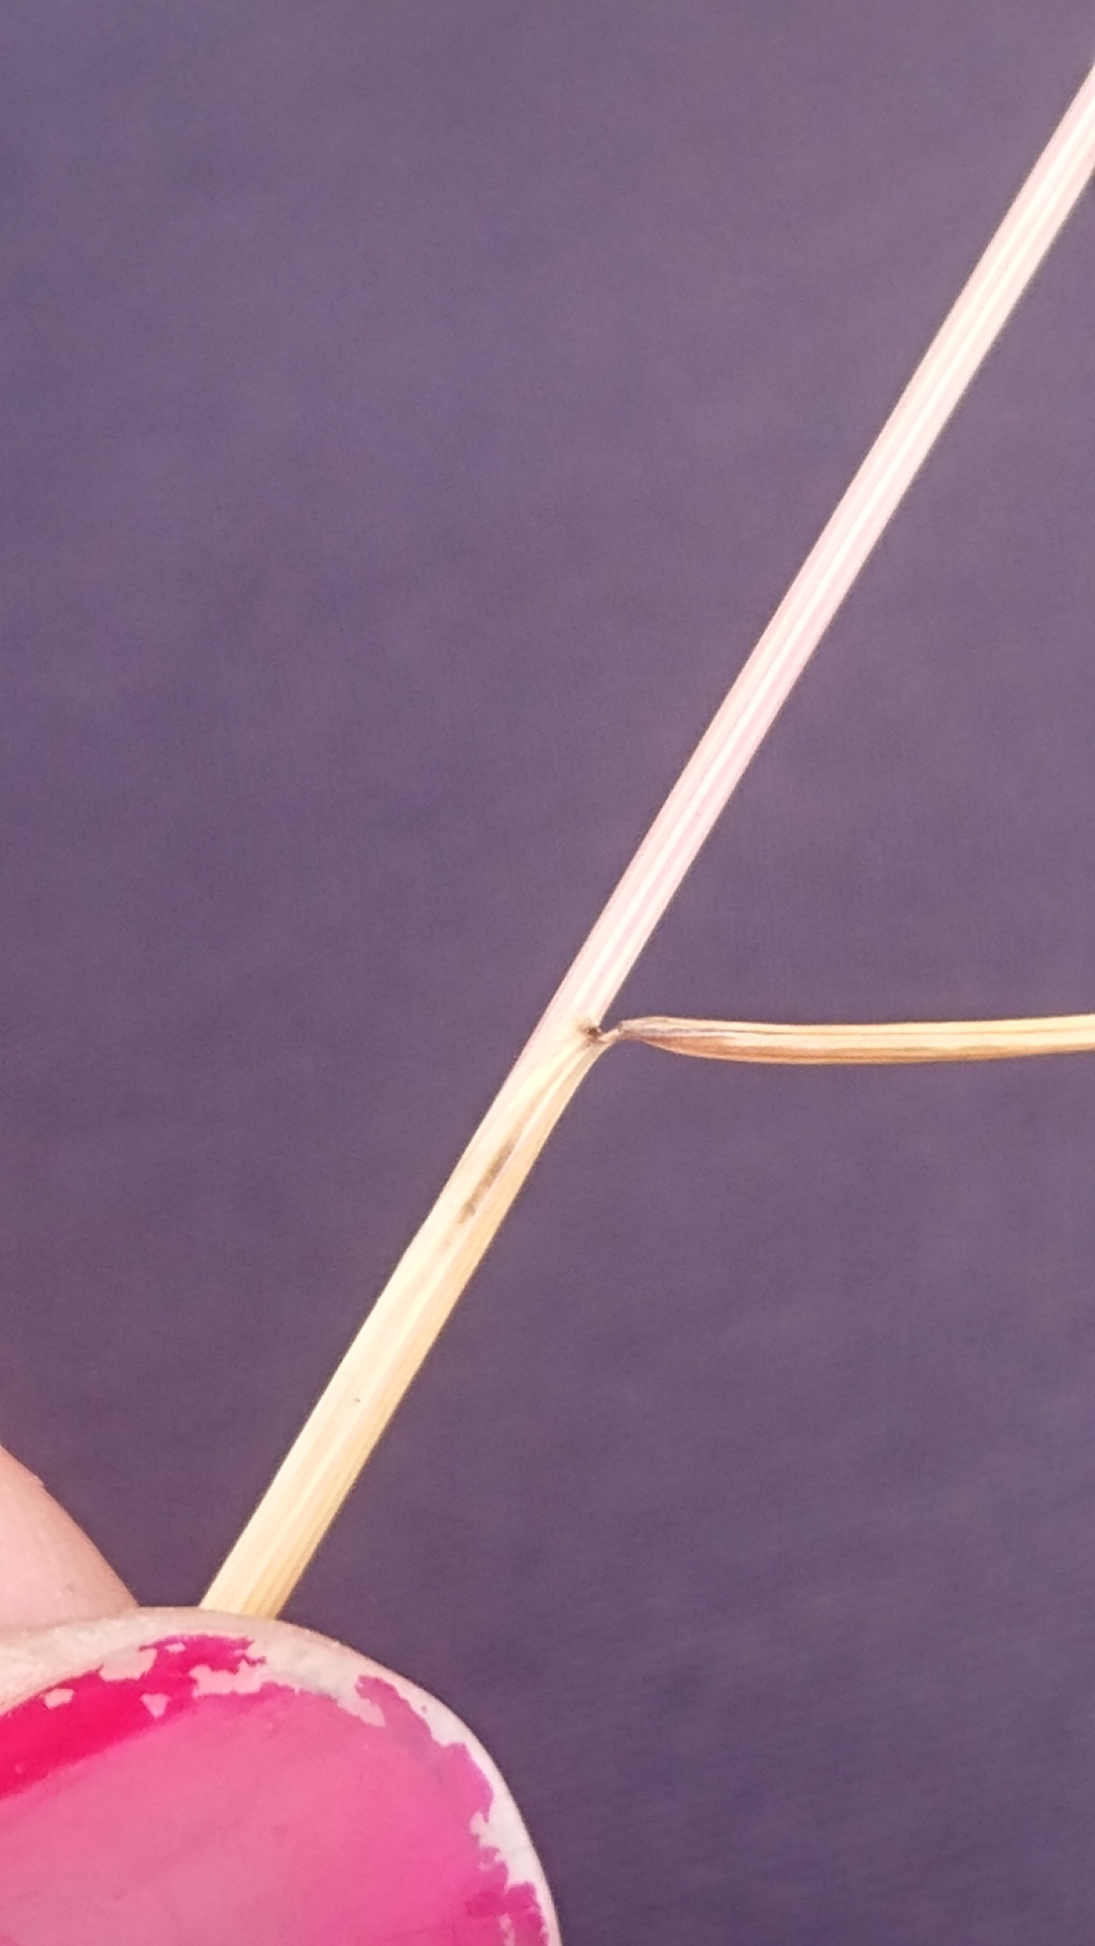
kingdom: Plantae
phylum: Tracheophyta
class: Liliopsida
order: Poales
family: Poaceae
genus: Festuca
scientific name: Festuca rubra
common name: Rød svingel
